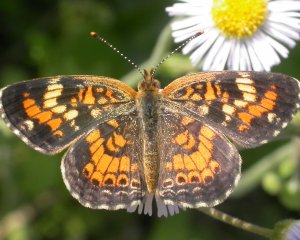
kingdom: Animalia
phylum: Arthropoda
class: Insecta
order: Lepidoptera
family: Nymphalidae
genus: Phyciodes
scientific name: Phyciodes phaon
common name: Phaon Crescent
